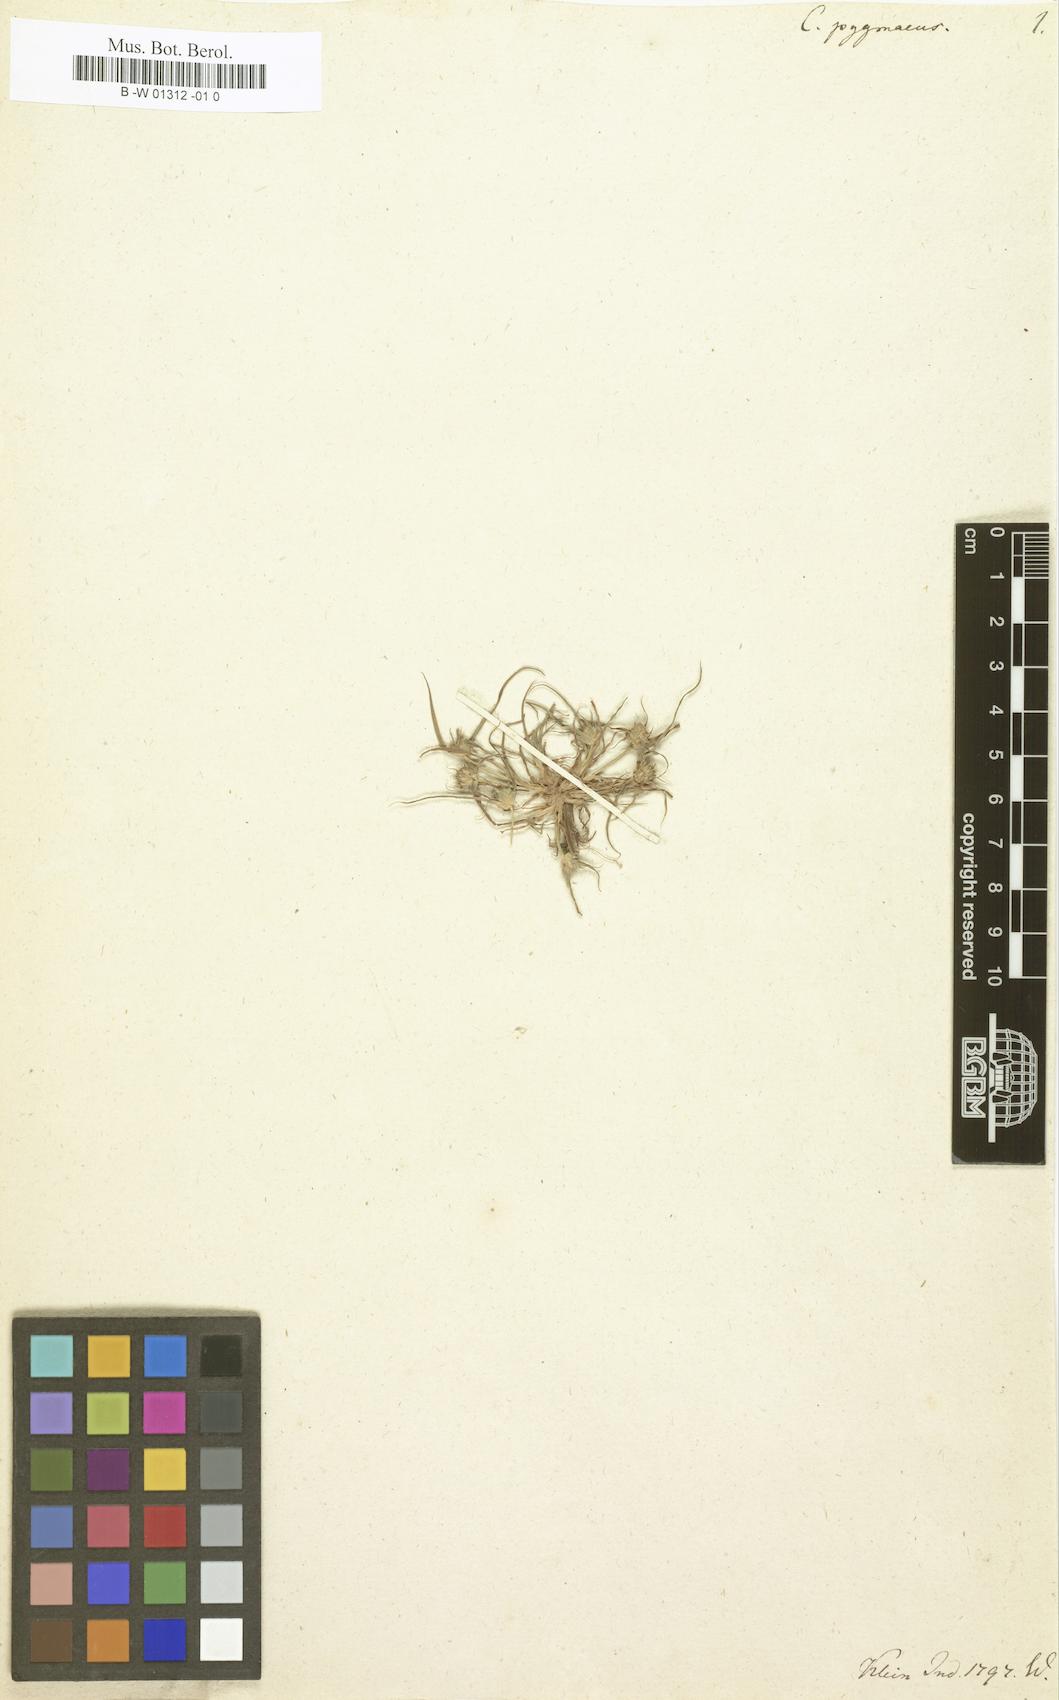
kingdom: Plantae
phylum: Tracheophyta
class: Liliopsida
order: Poales
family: Cyperaceae
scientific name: Cyperaceae
